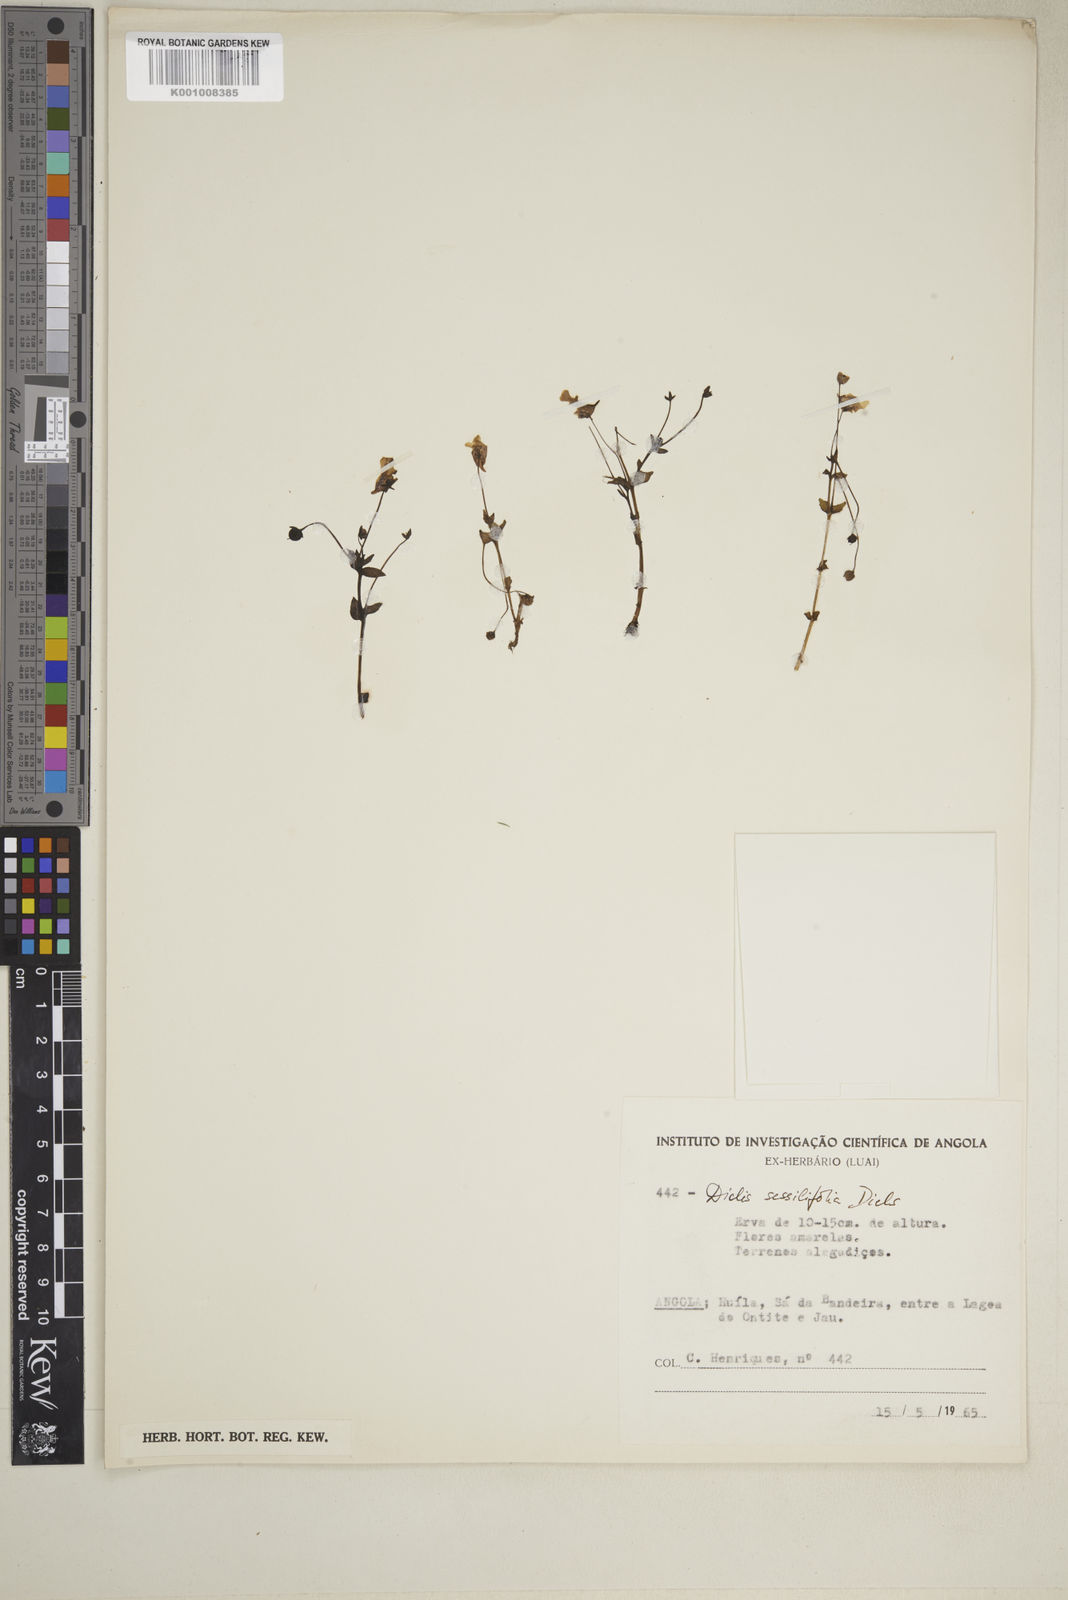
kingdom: Plantae
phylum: Tracheophyta
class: Magnoliopsida
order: Lamiales
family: Scrophulariaceae
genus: Diclis
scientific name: Diclis sessilifolia
